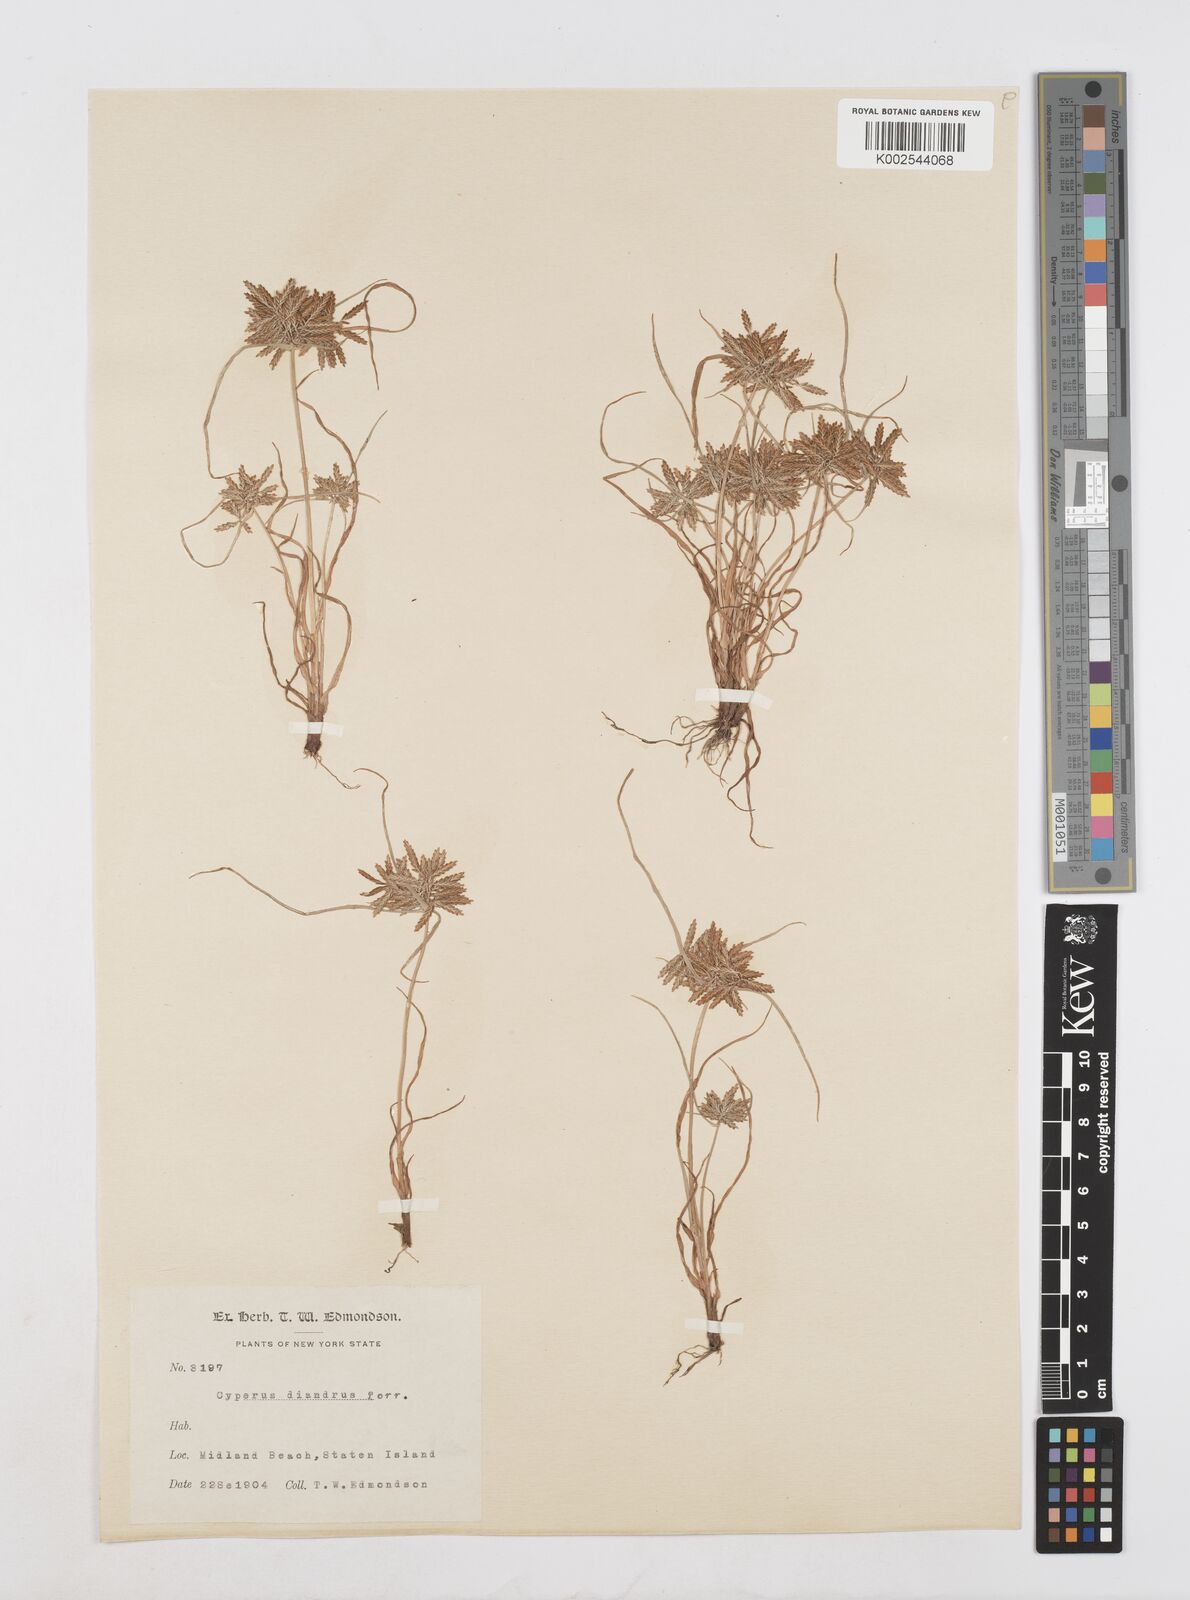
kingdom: Plantae
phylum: Tracheophyta
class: Liliopsida
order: Poales
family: Cyperaceae
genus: Cyperus
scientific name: Cyperus diandrus
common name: Low cyperus
